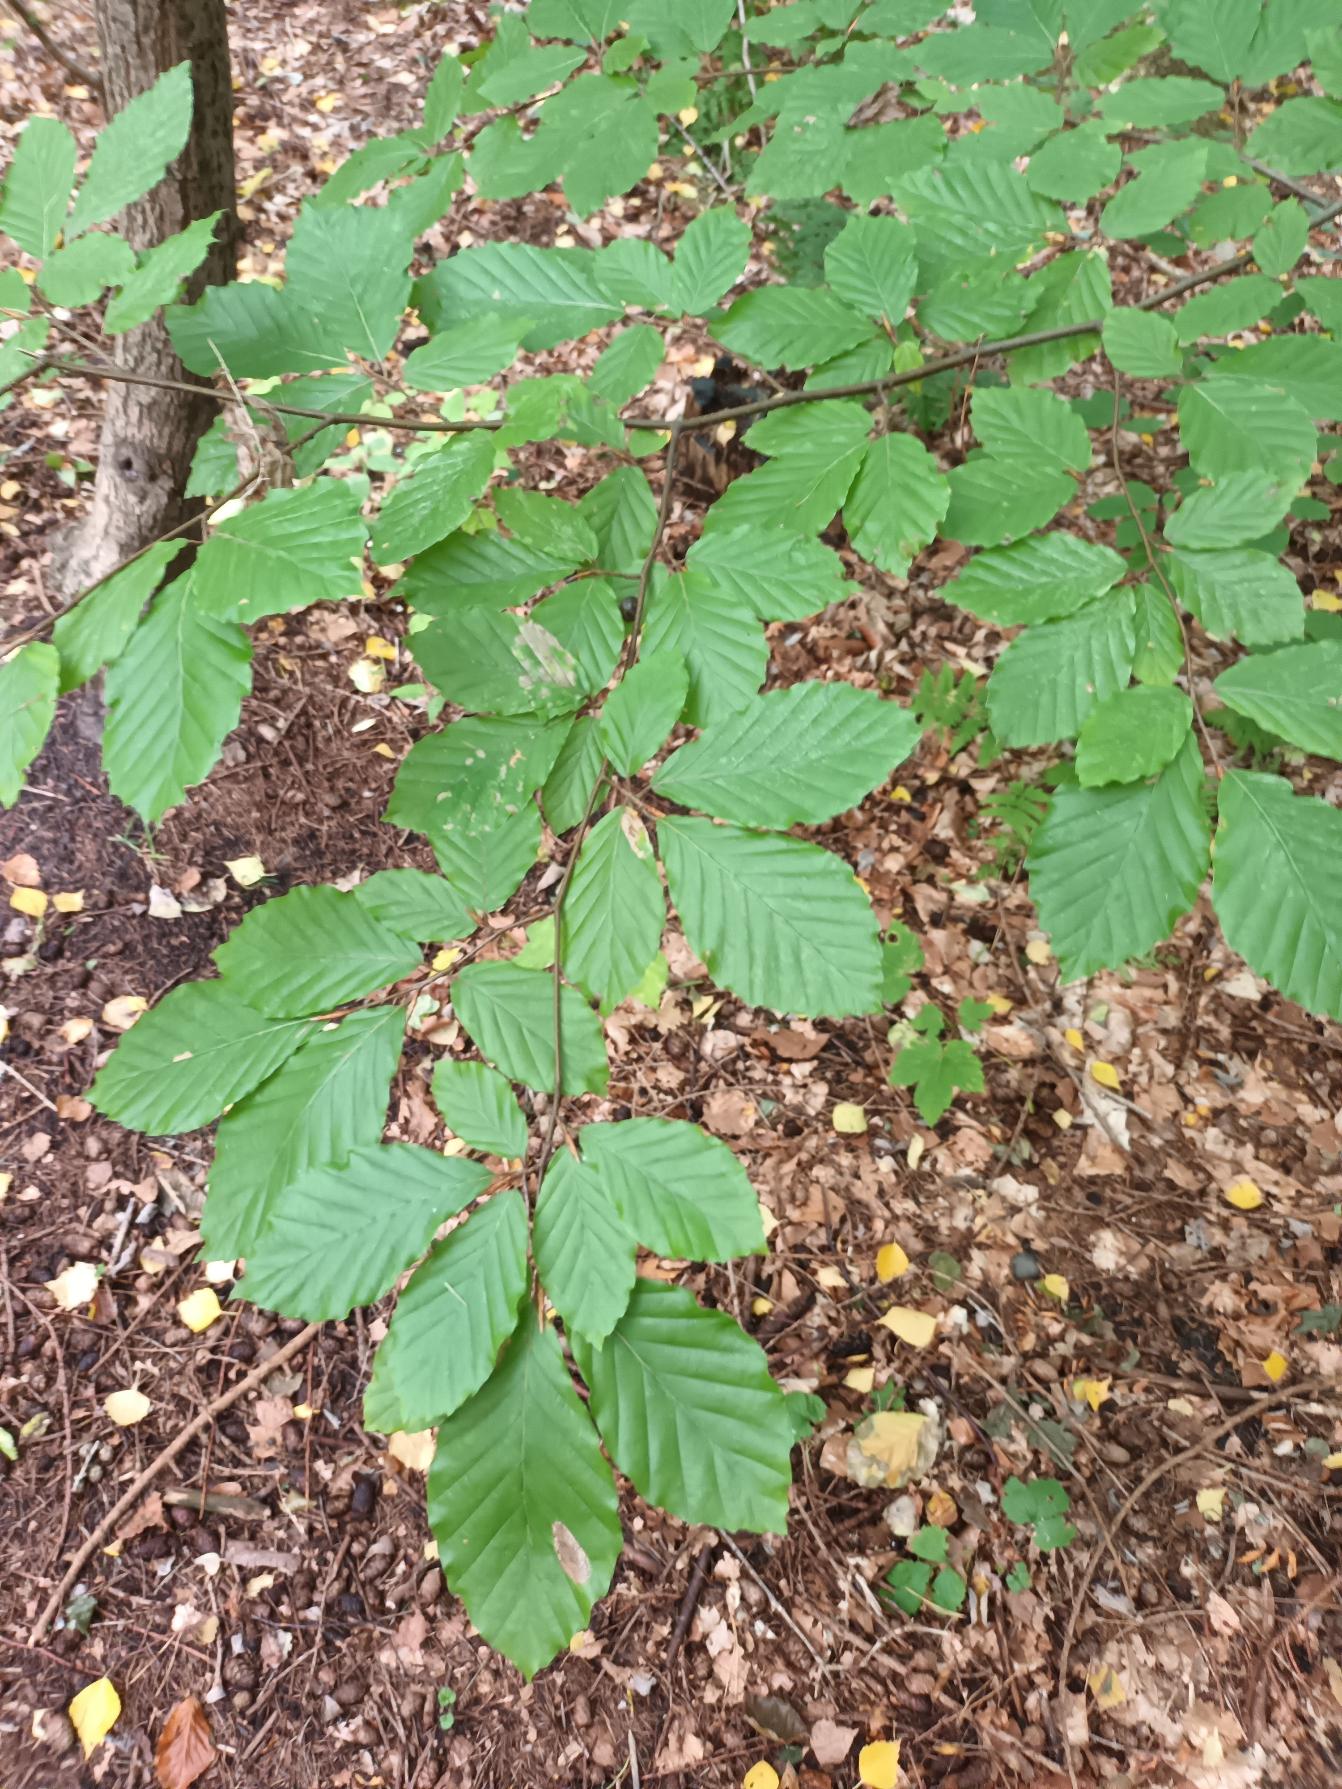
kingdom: Plantae
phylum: Tracheophyta
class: Magnoliopsida
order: Fagales
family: Fagaceae
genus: Fagus
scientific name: Fagus sylvatica
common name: Bøg
